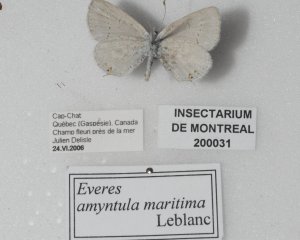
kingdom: Animalia
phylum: Arthropoda
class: Insecta
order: Lepidoptera
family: Lycaenidae
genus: Elkalyce
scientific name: Elkalyce amyntula
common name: Western Tailed-Blue
